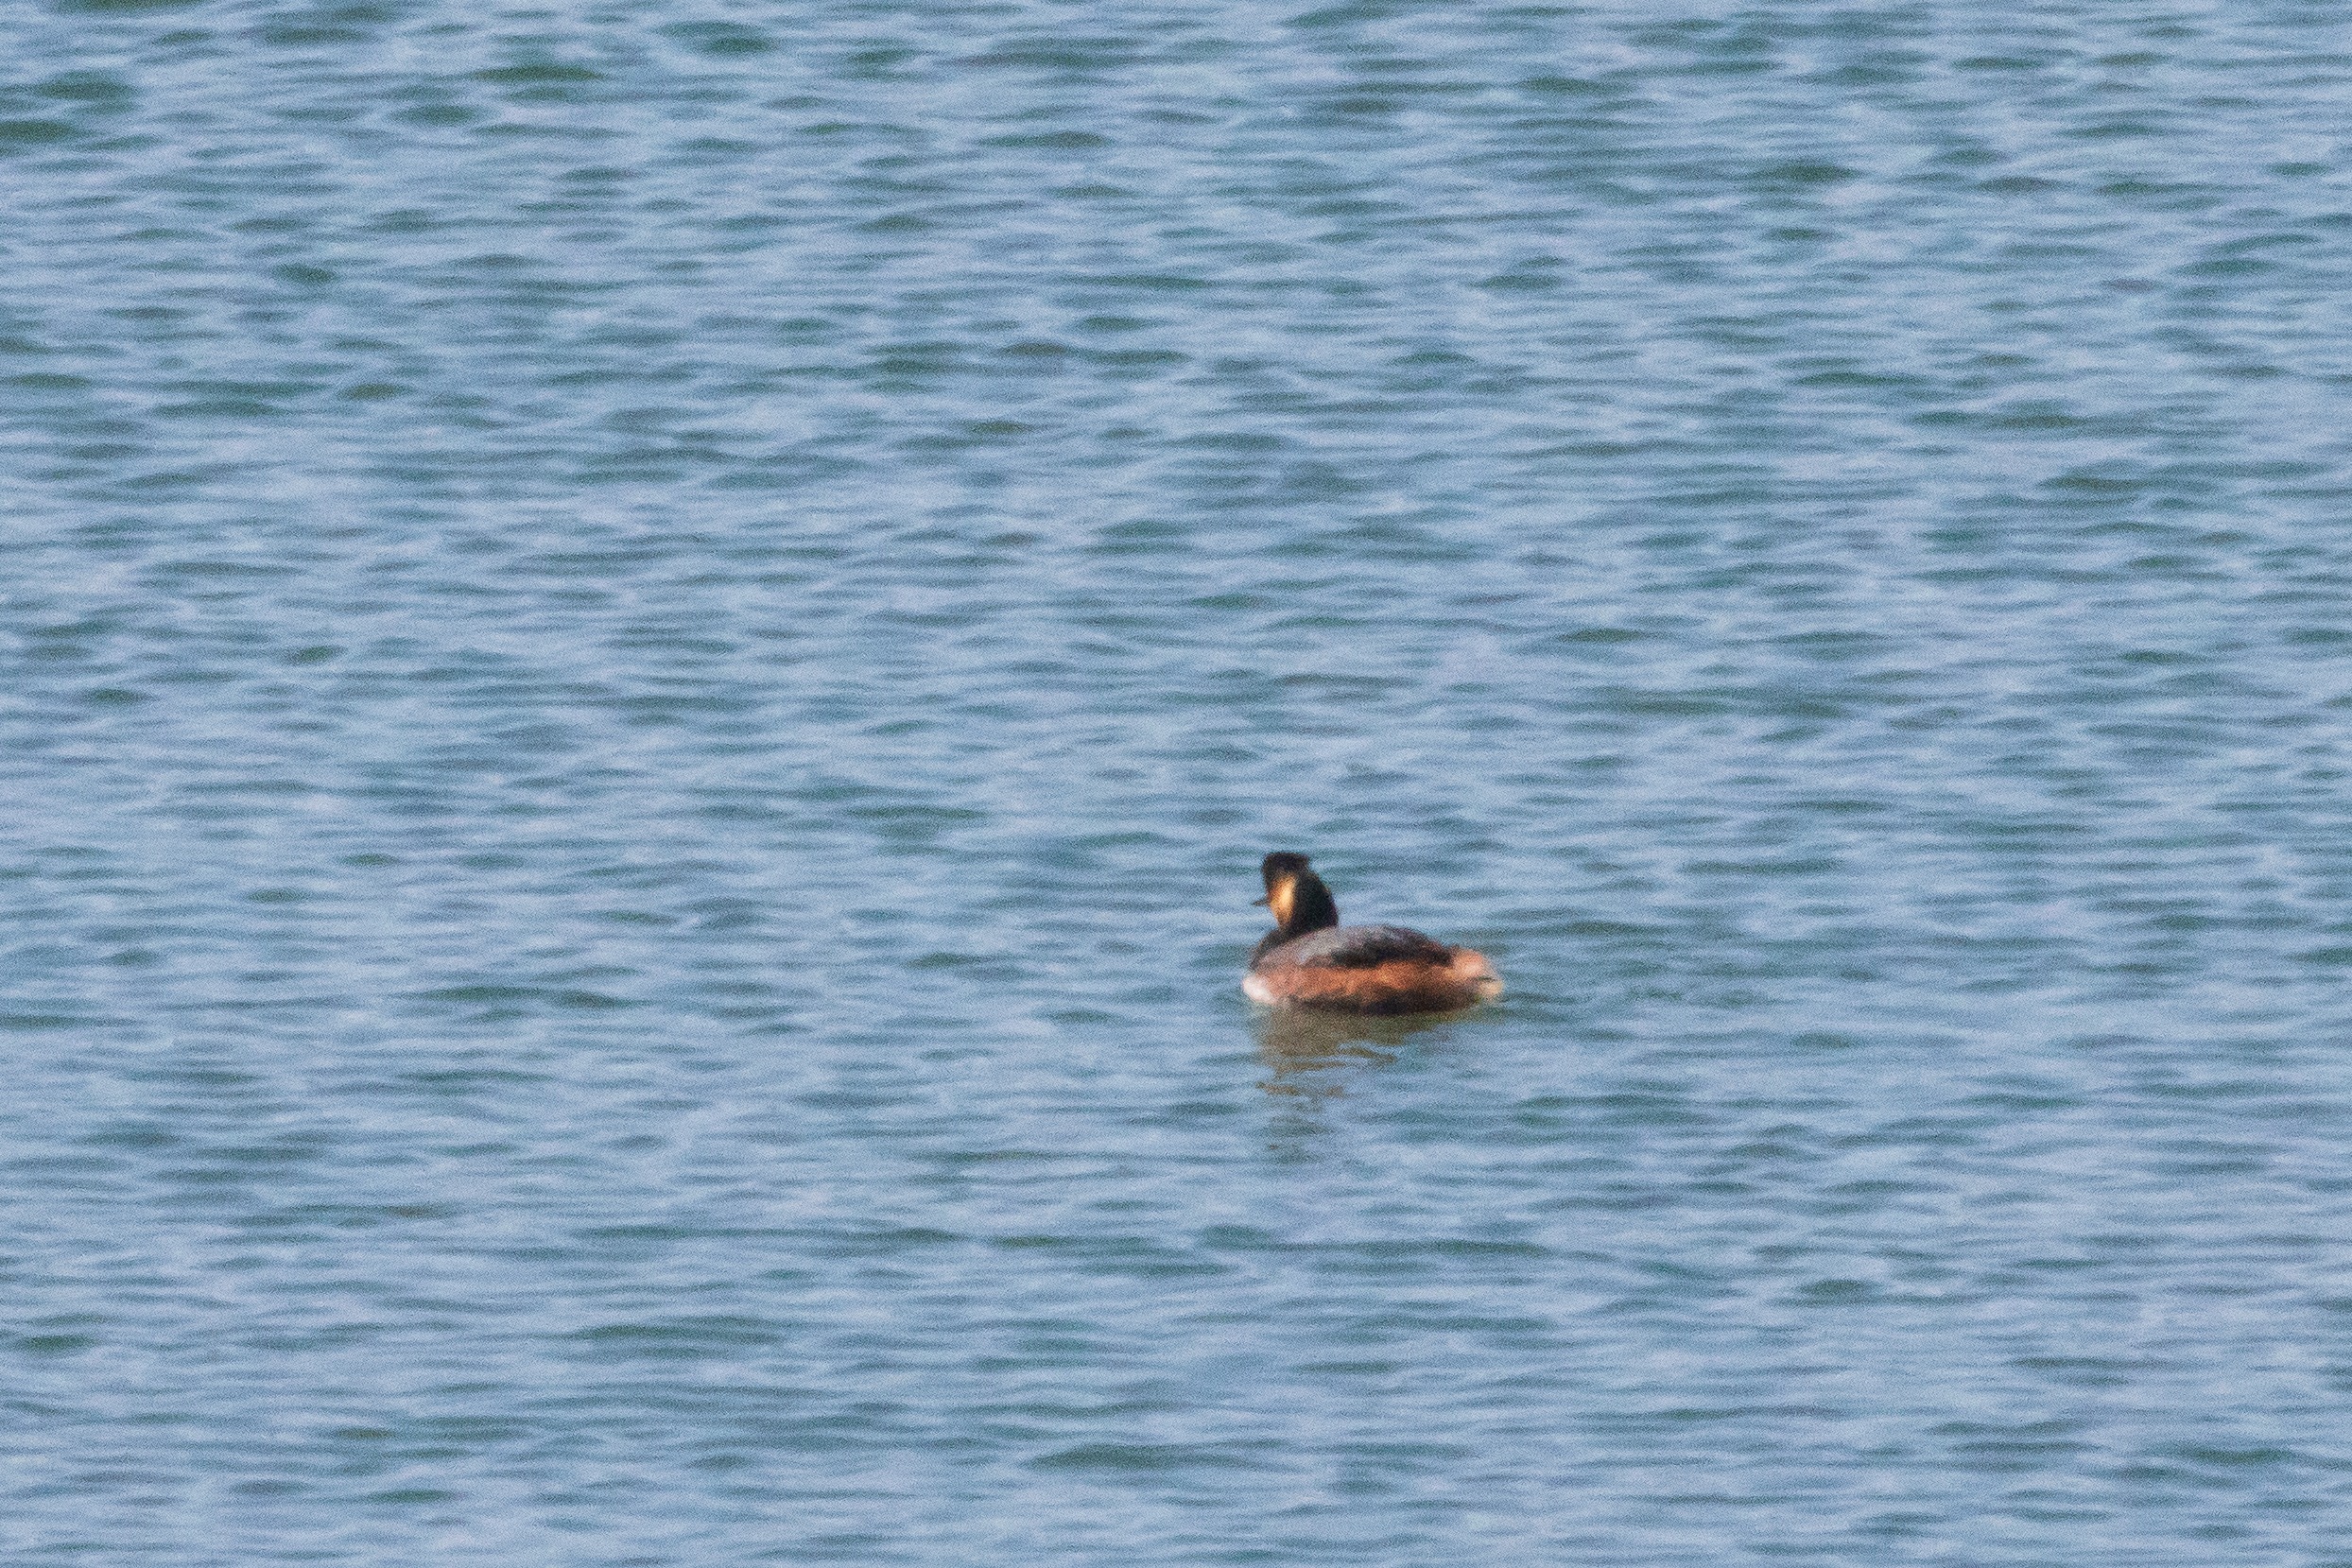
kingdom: Animalia
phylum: Chordata
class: Aves
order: Podicipediformes
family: Podicipedidae
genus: Podiceps
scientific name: Podiceps nigricollis
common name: Sorthalset lappedykker
